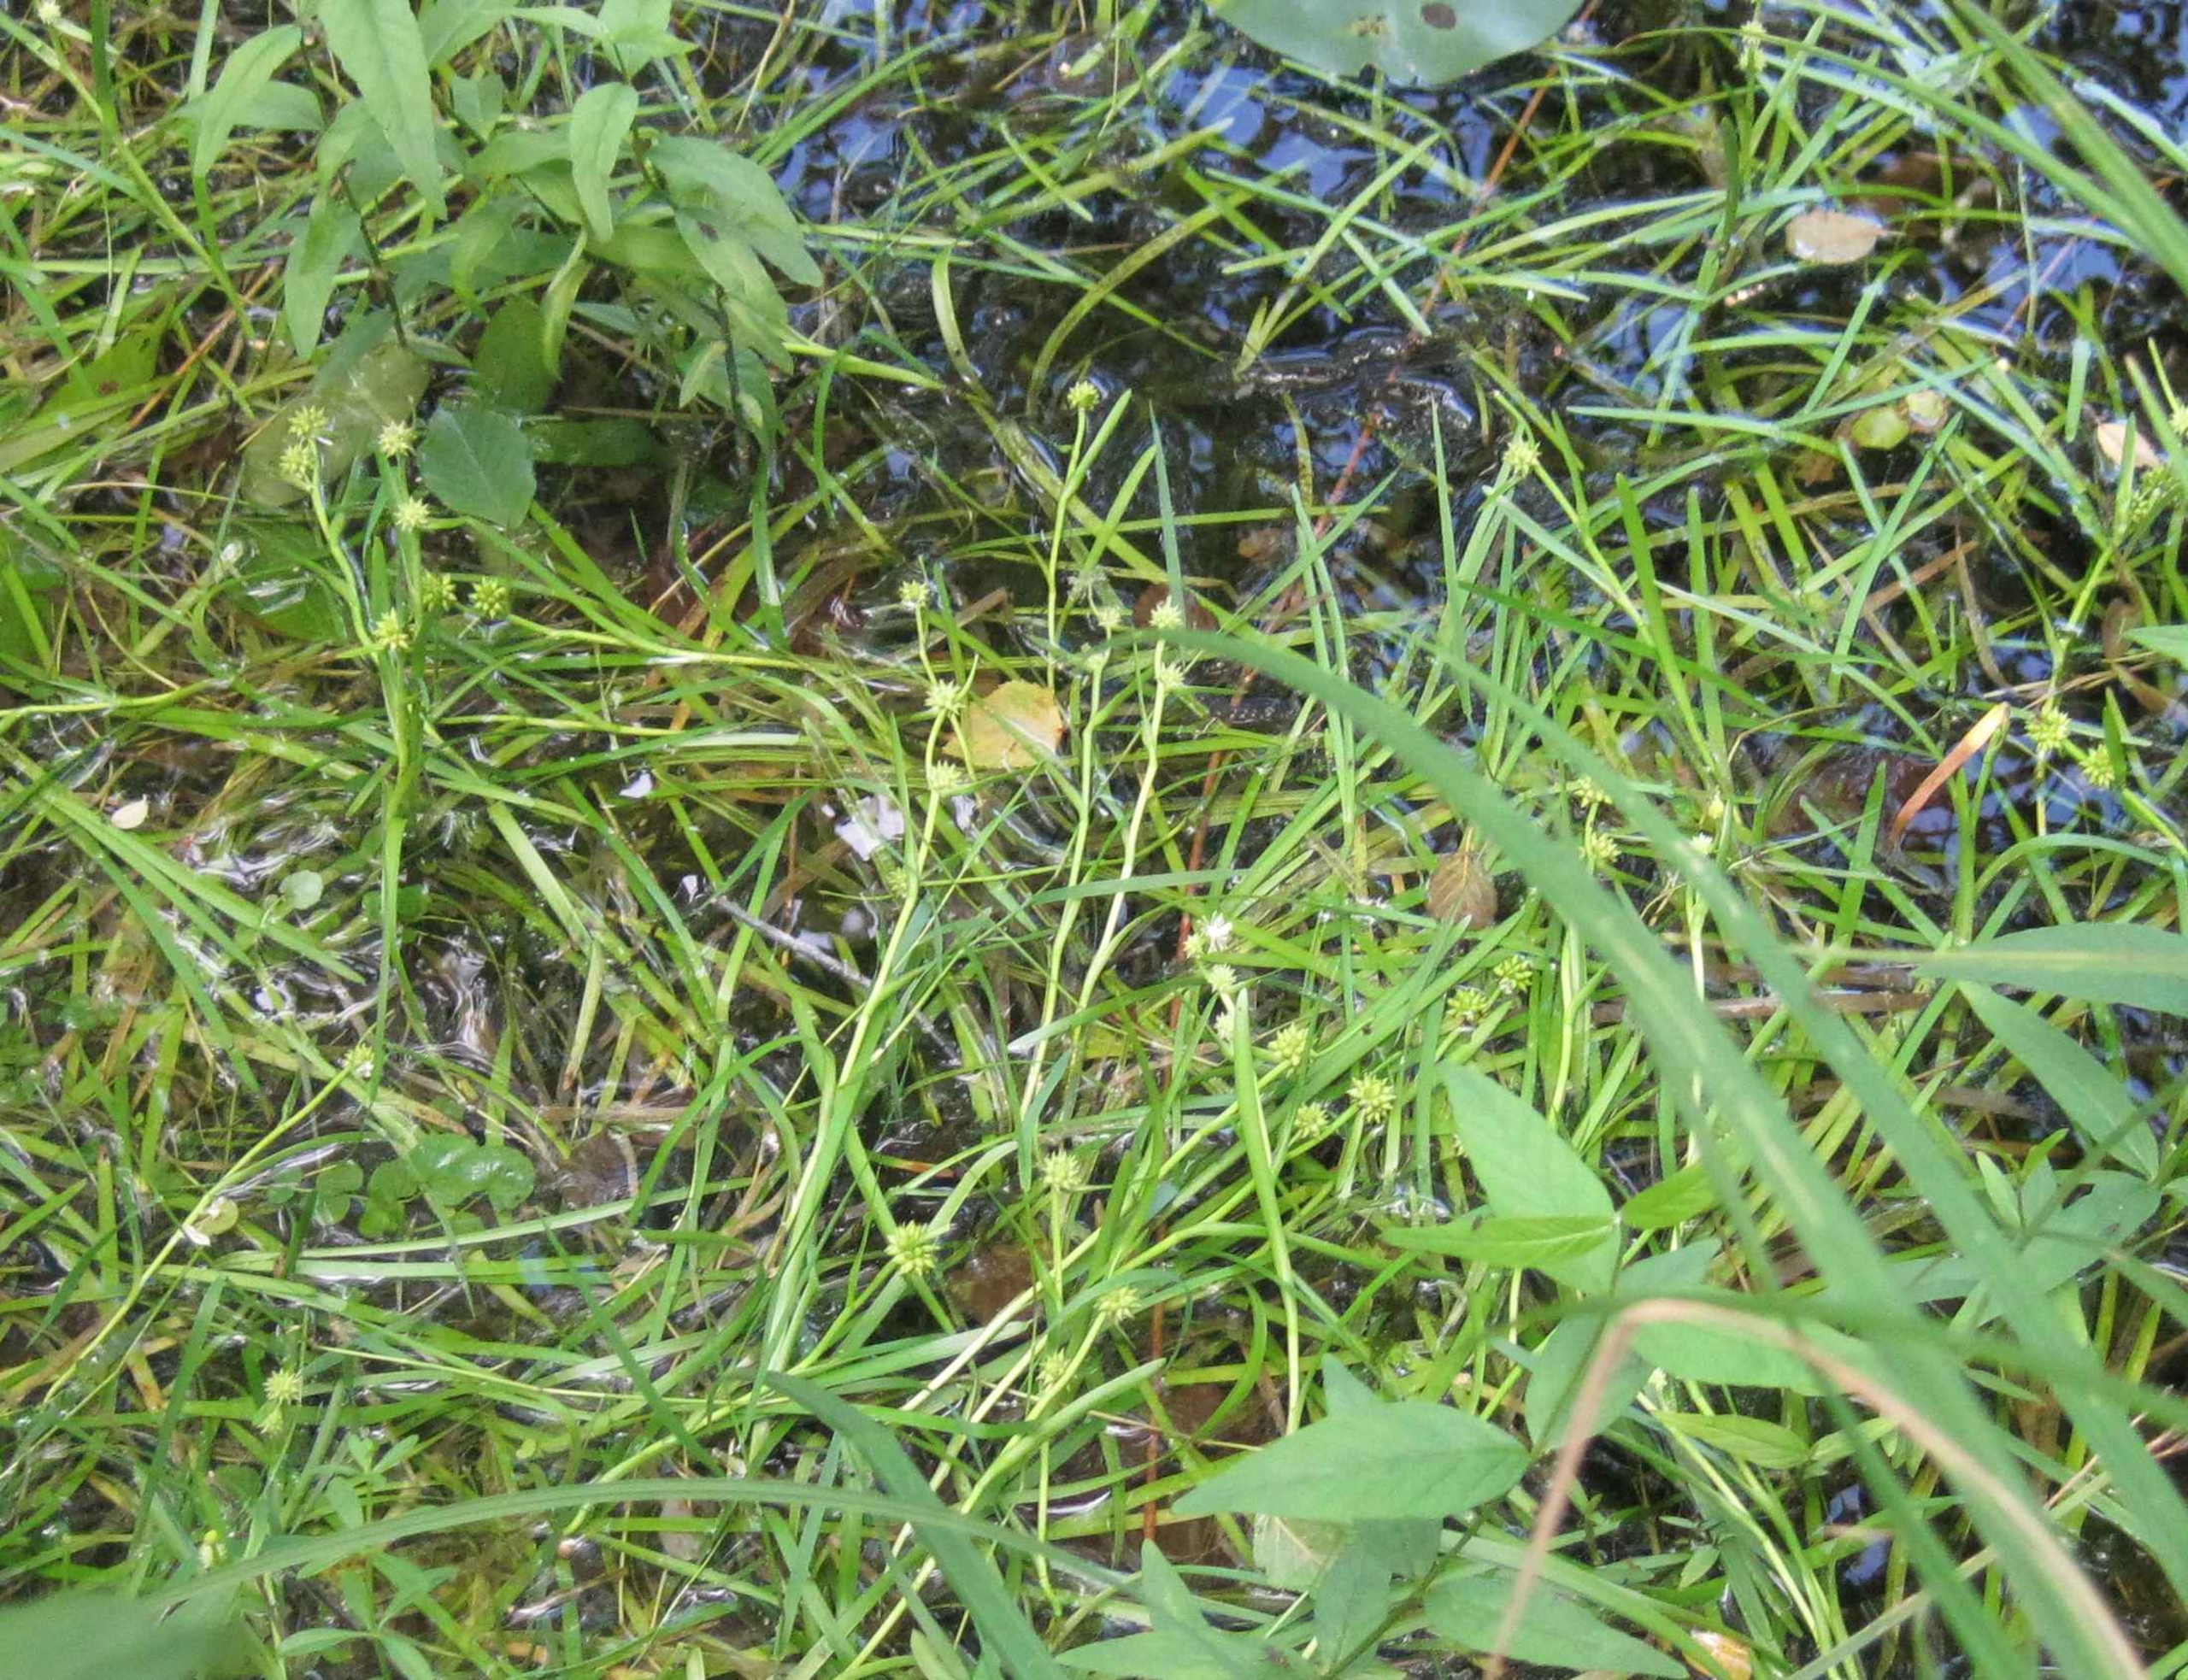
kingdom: Plantae
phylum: Tracheophyta
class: Liliopsida
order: Poales
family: Typhaceae
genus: Sparganium
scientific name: Sparganium natans
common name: Spæd pindsvineknop
